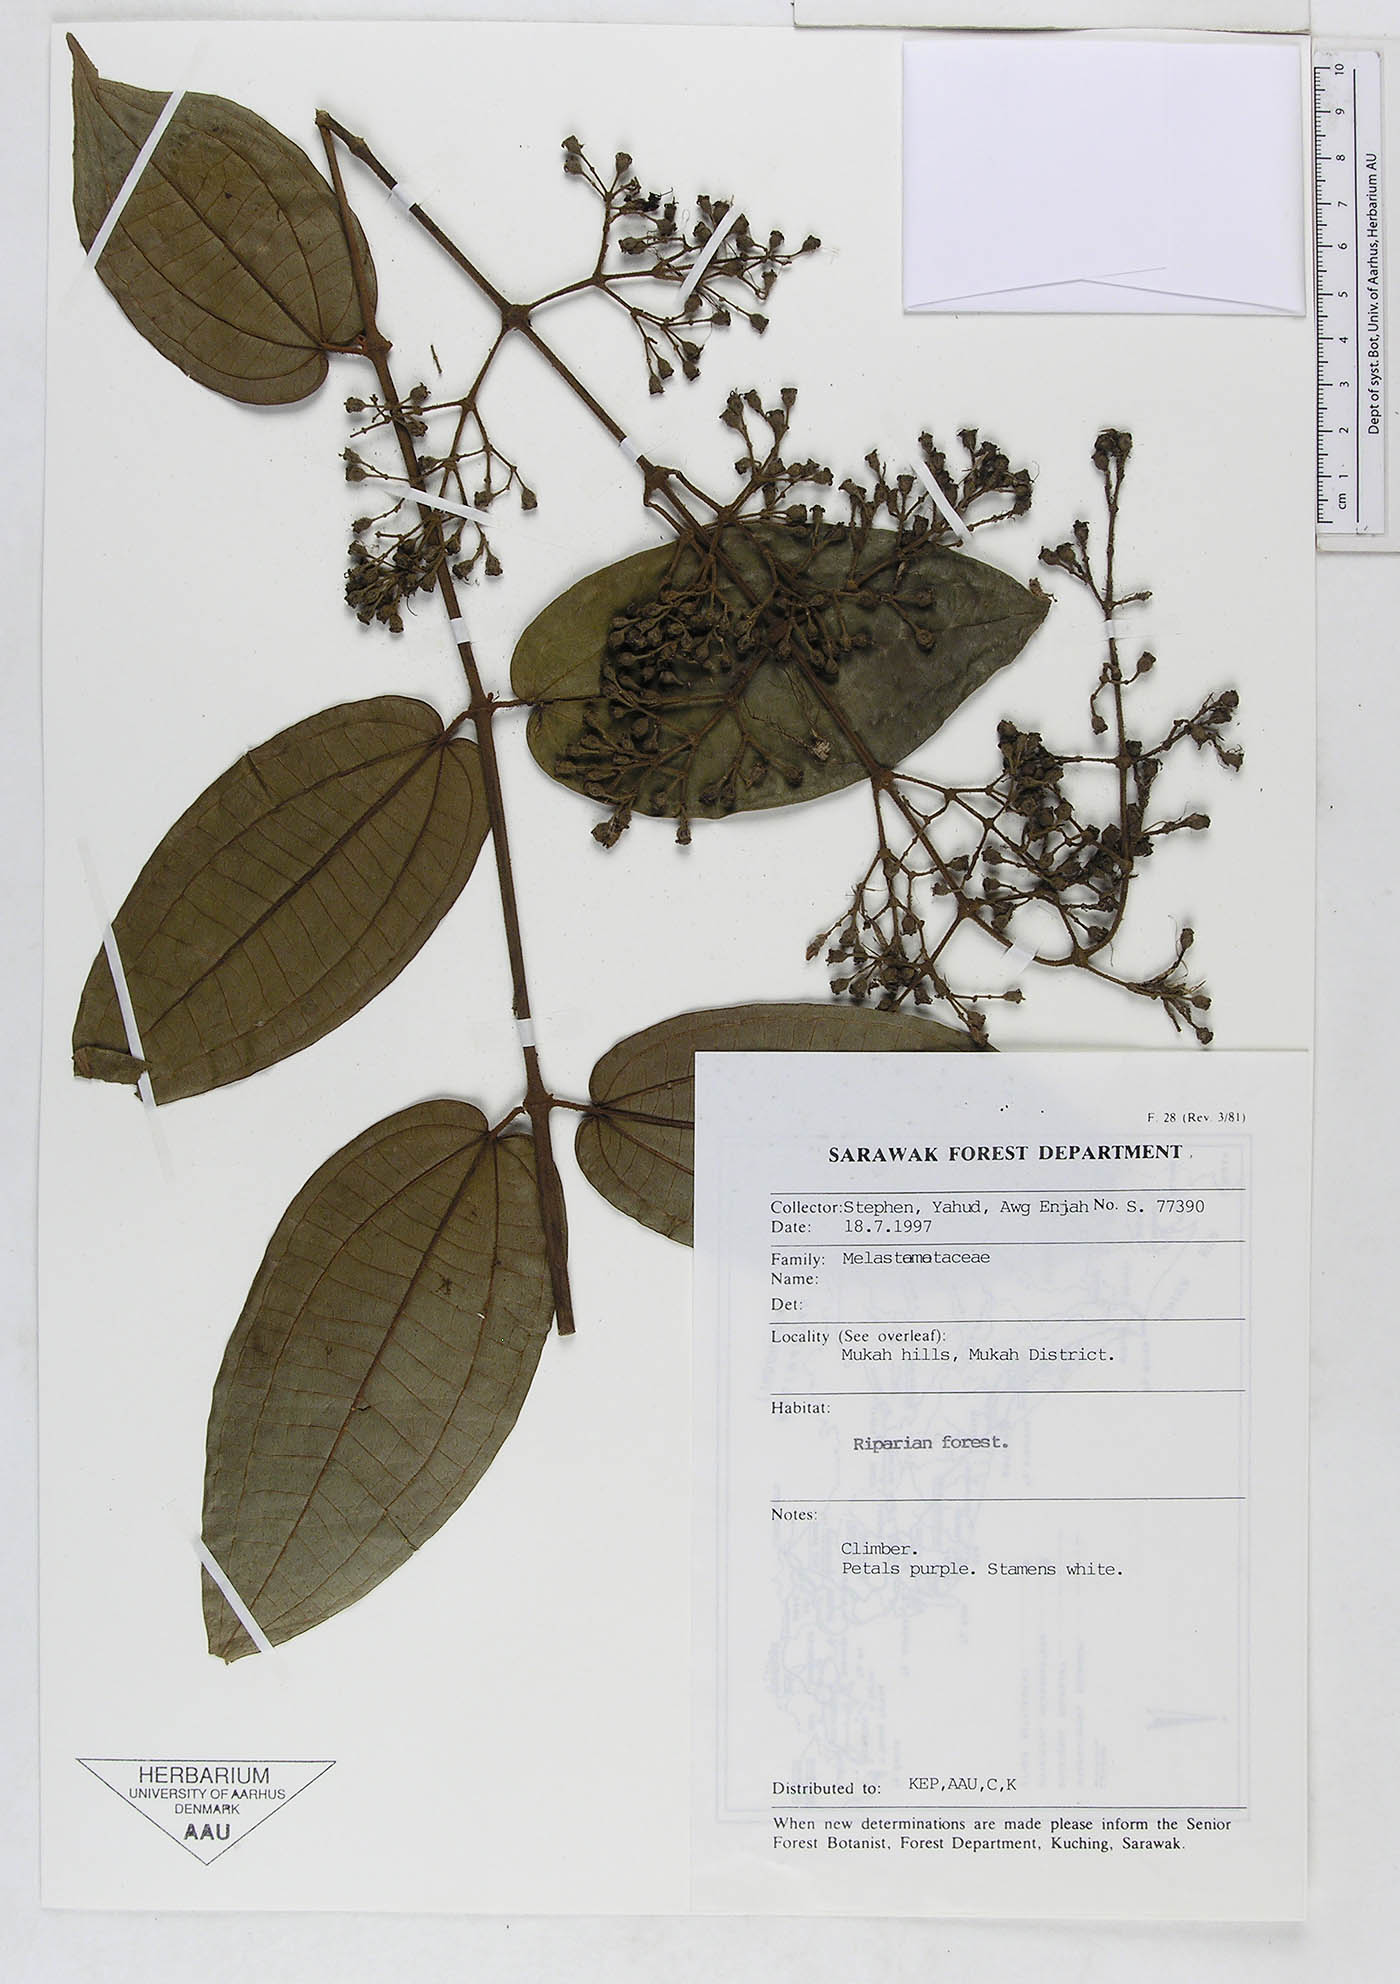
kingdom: Plantae
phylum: Tracheophyta
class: Magnoliopsida
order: Myrtales
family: Melastomataceae
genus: Diplectria
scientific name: Diplectria
